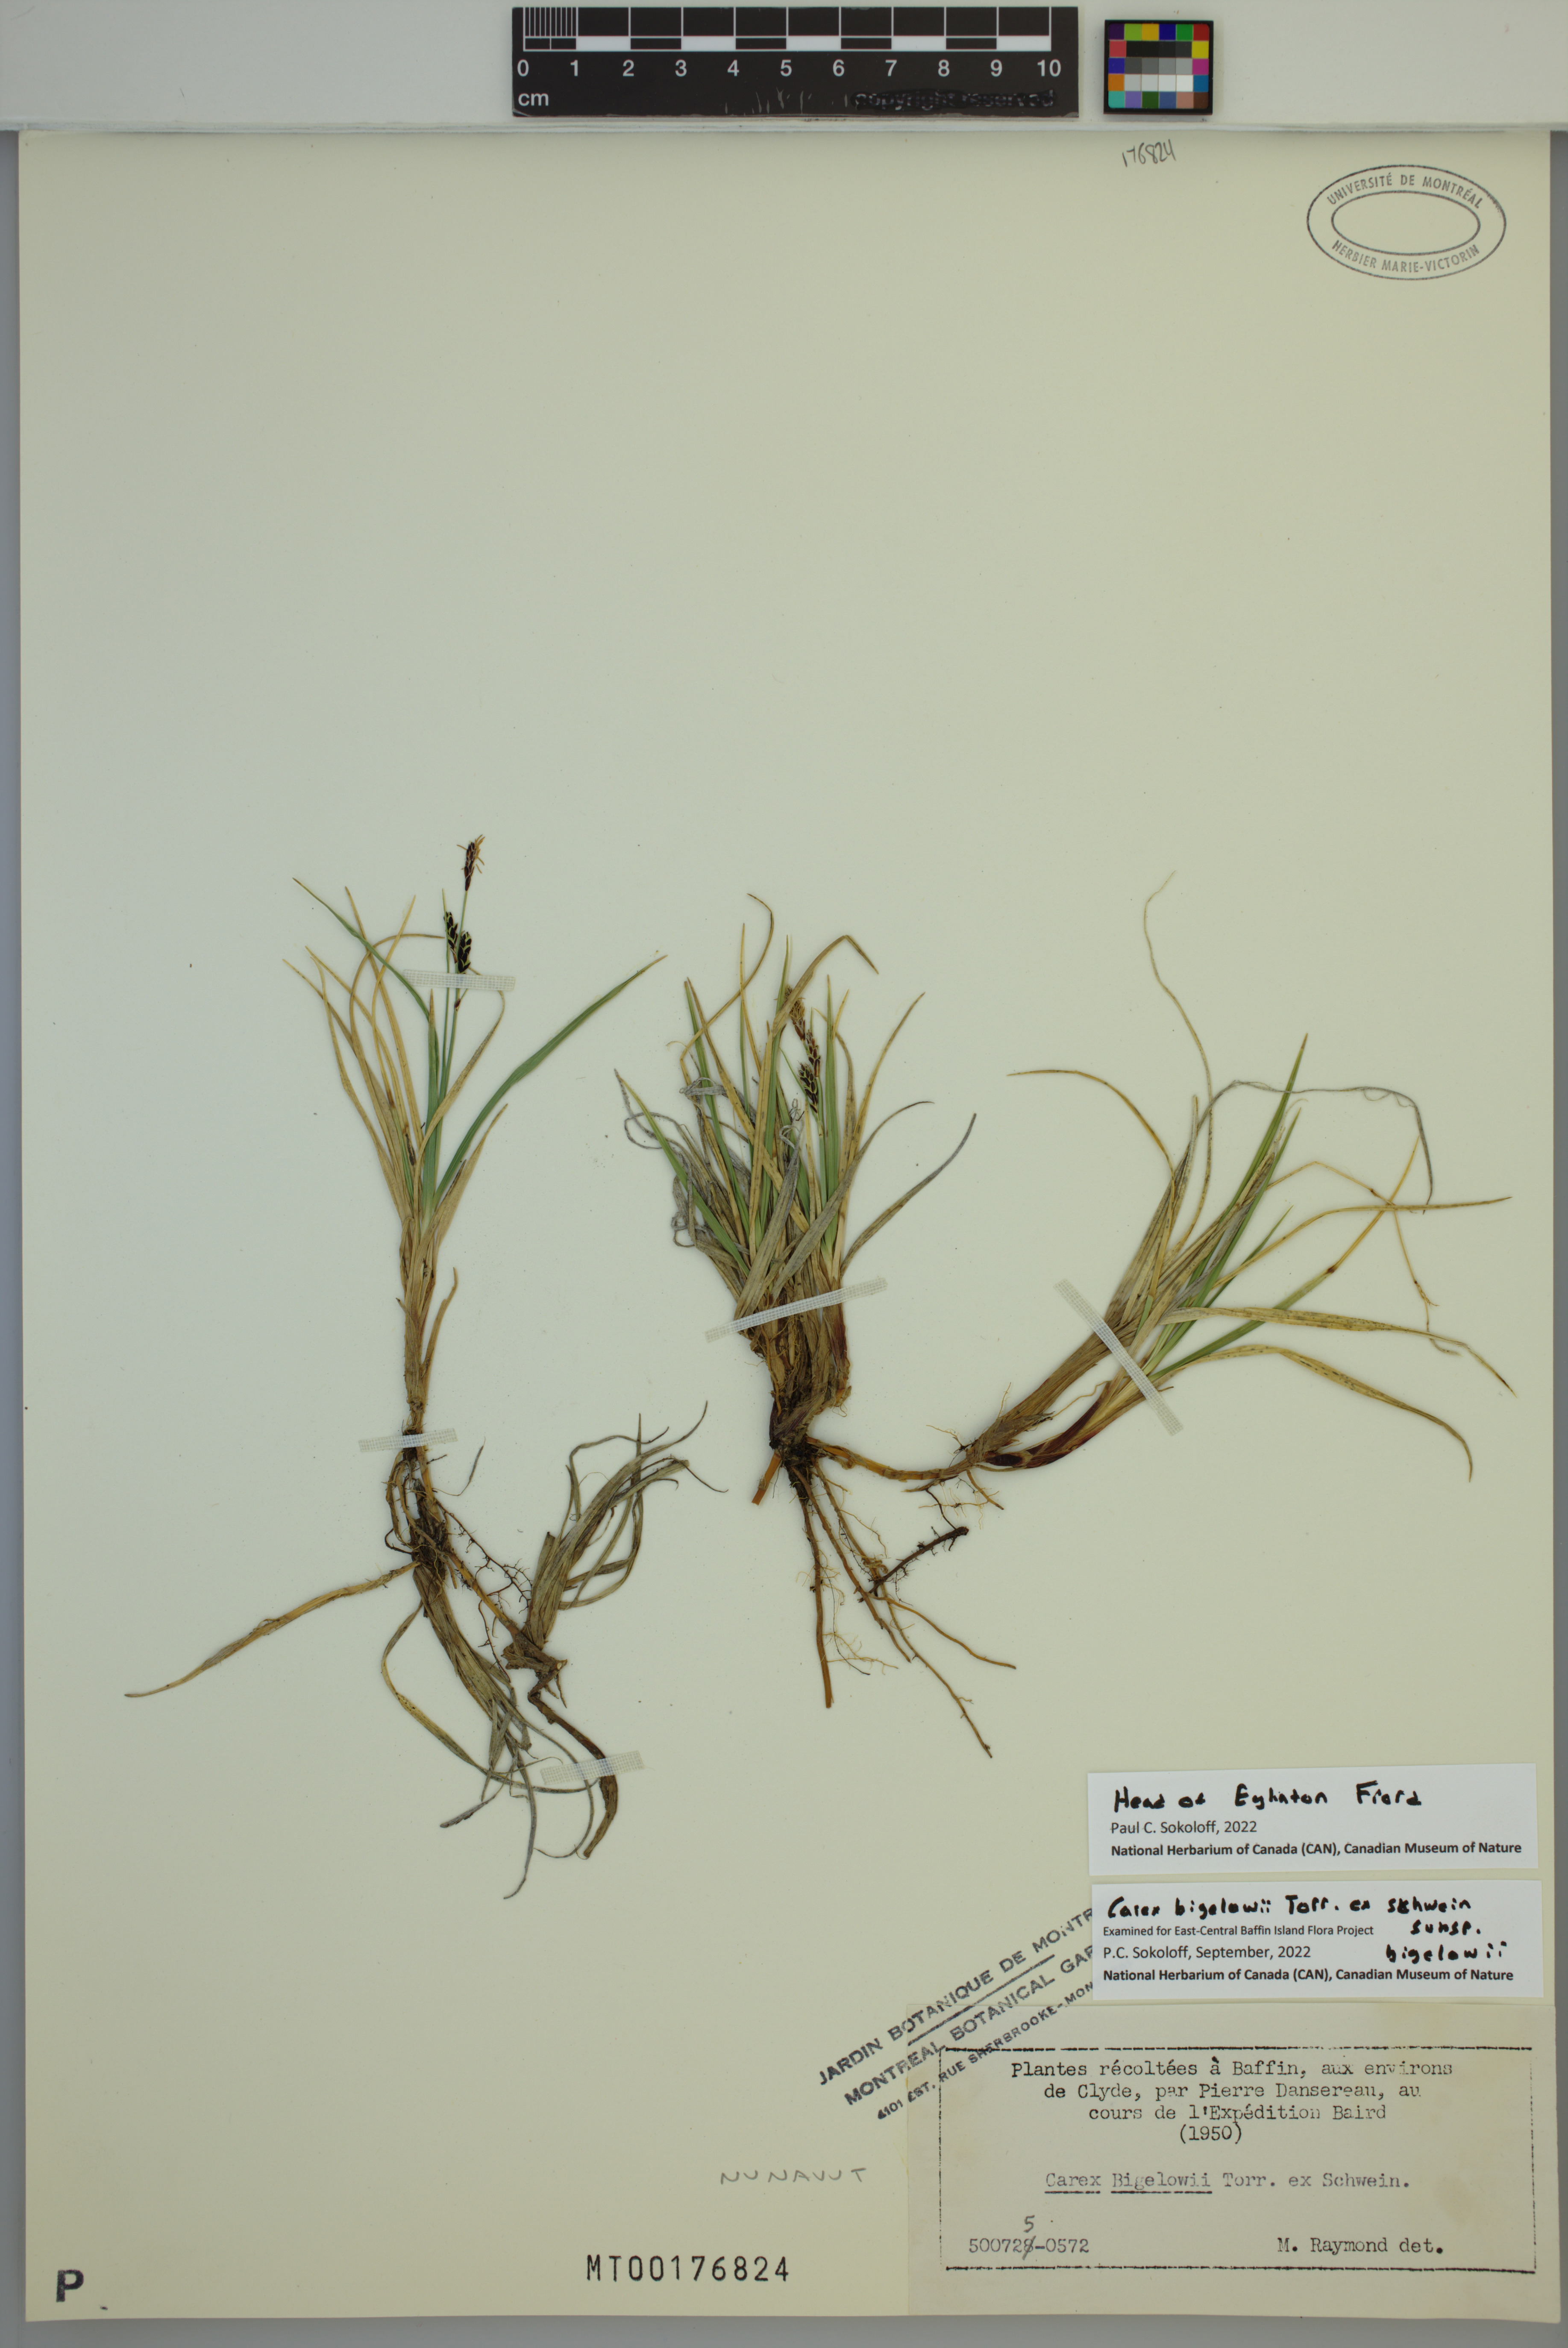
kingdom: Plantae
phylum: Tracheophyta
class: Liliopsida
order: Poales
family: Cyperaceae
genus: Carex
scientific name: Carex bigelowii
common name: Stiff sedge
